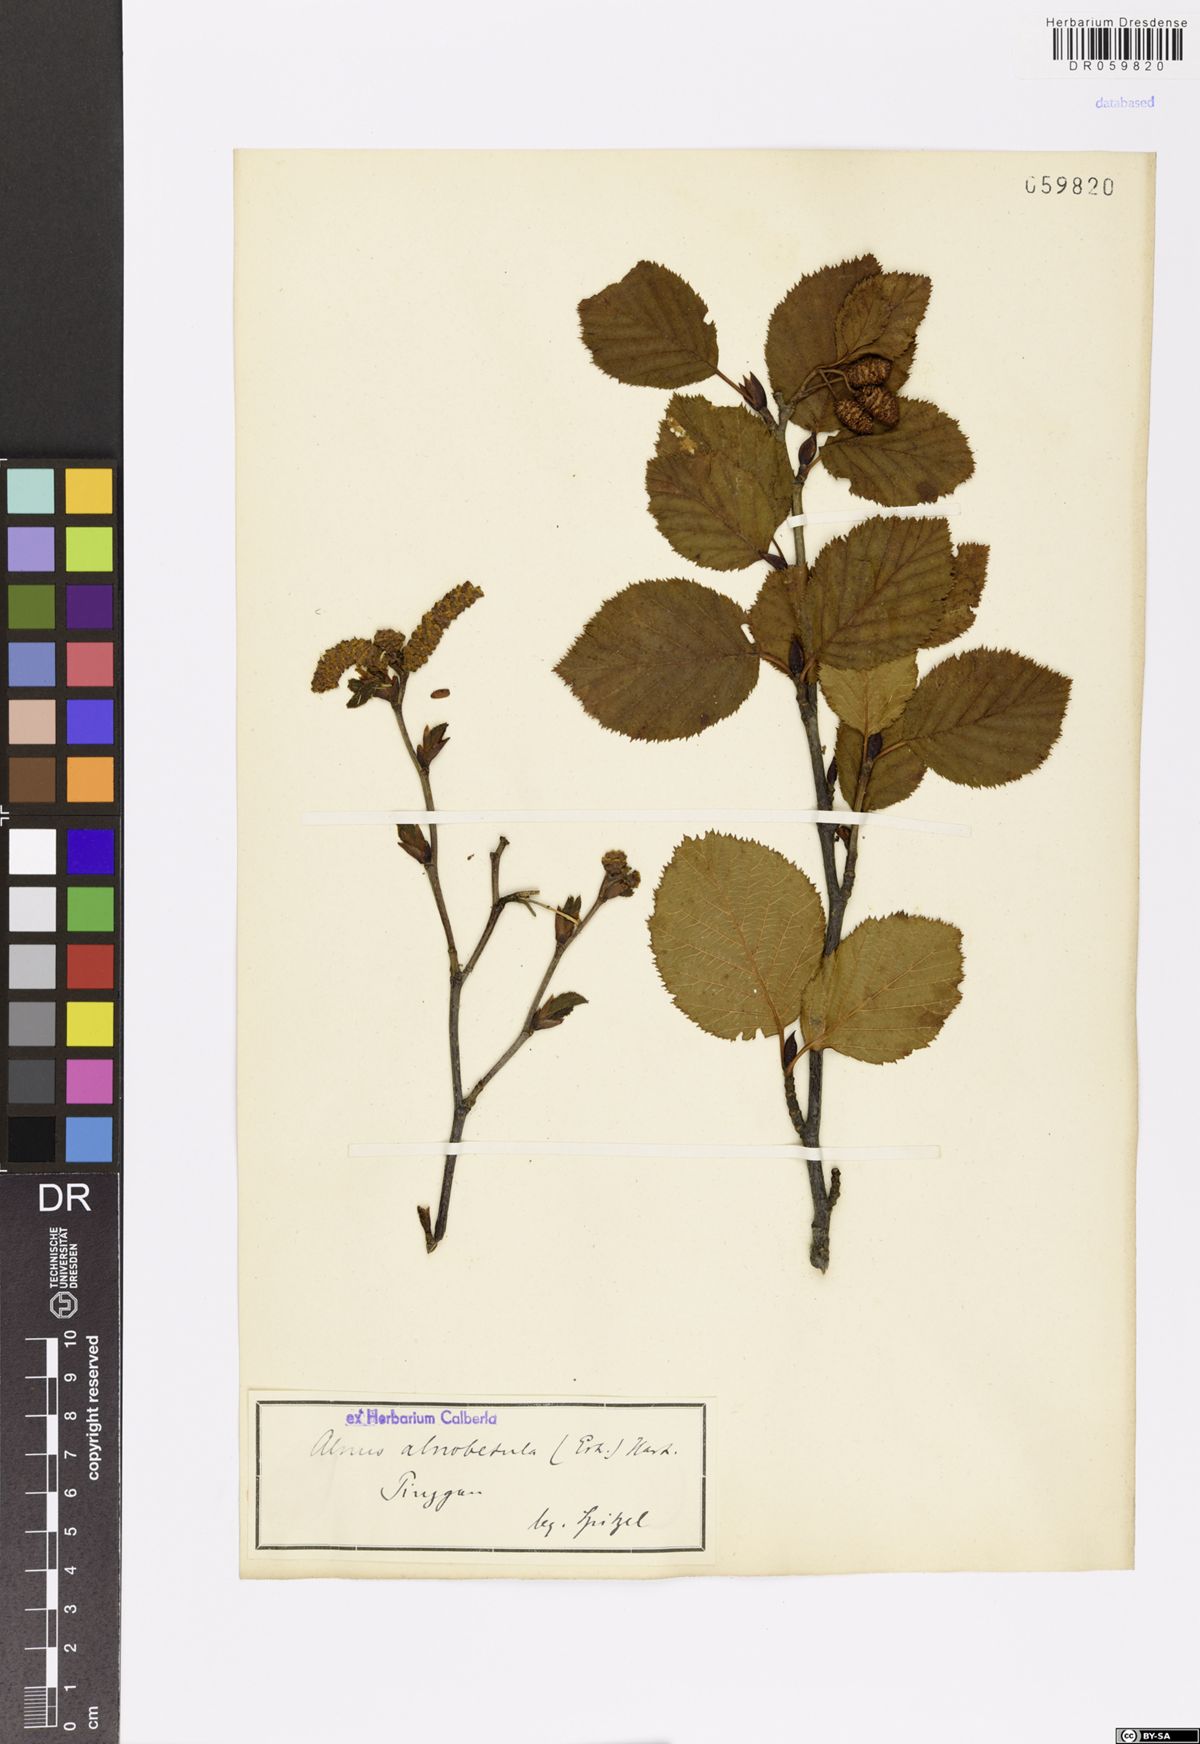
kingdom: Plantae
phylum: Tracheophyta
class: Magnoliopsida
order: Fagales
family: Betulaceae
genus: Alnus
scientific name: Alnus alnobetula
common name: Green alder
